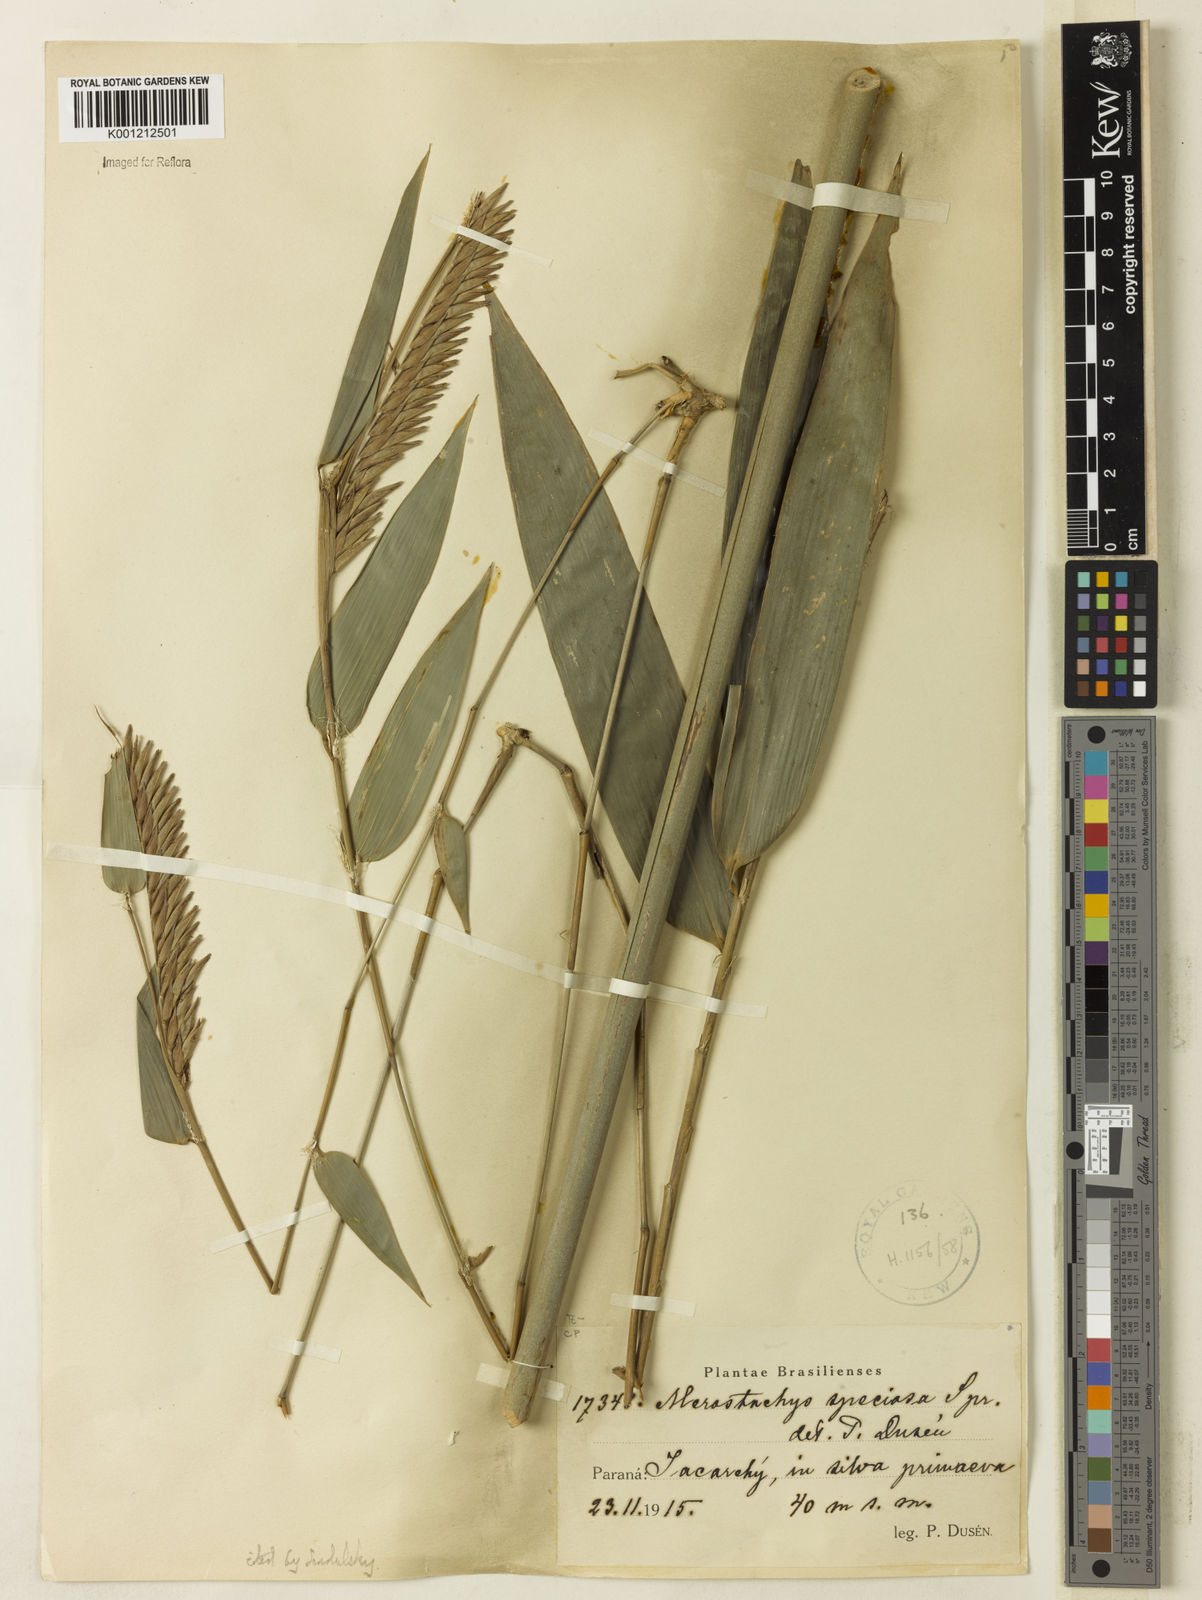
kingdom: Plantae
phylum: Tracheophyta
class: Liliopsida
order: Poales
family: Poaceae
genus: Merostachys
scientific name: Merostachys speciosa
